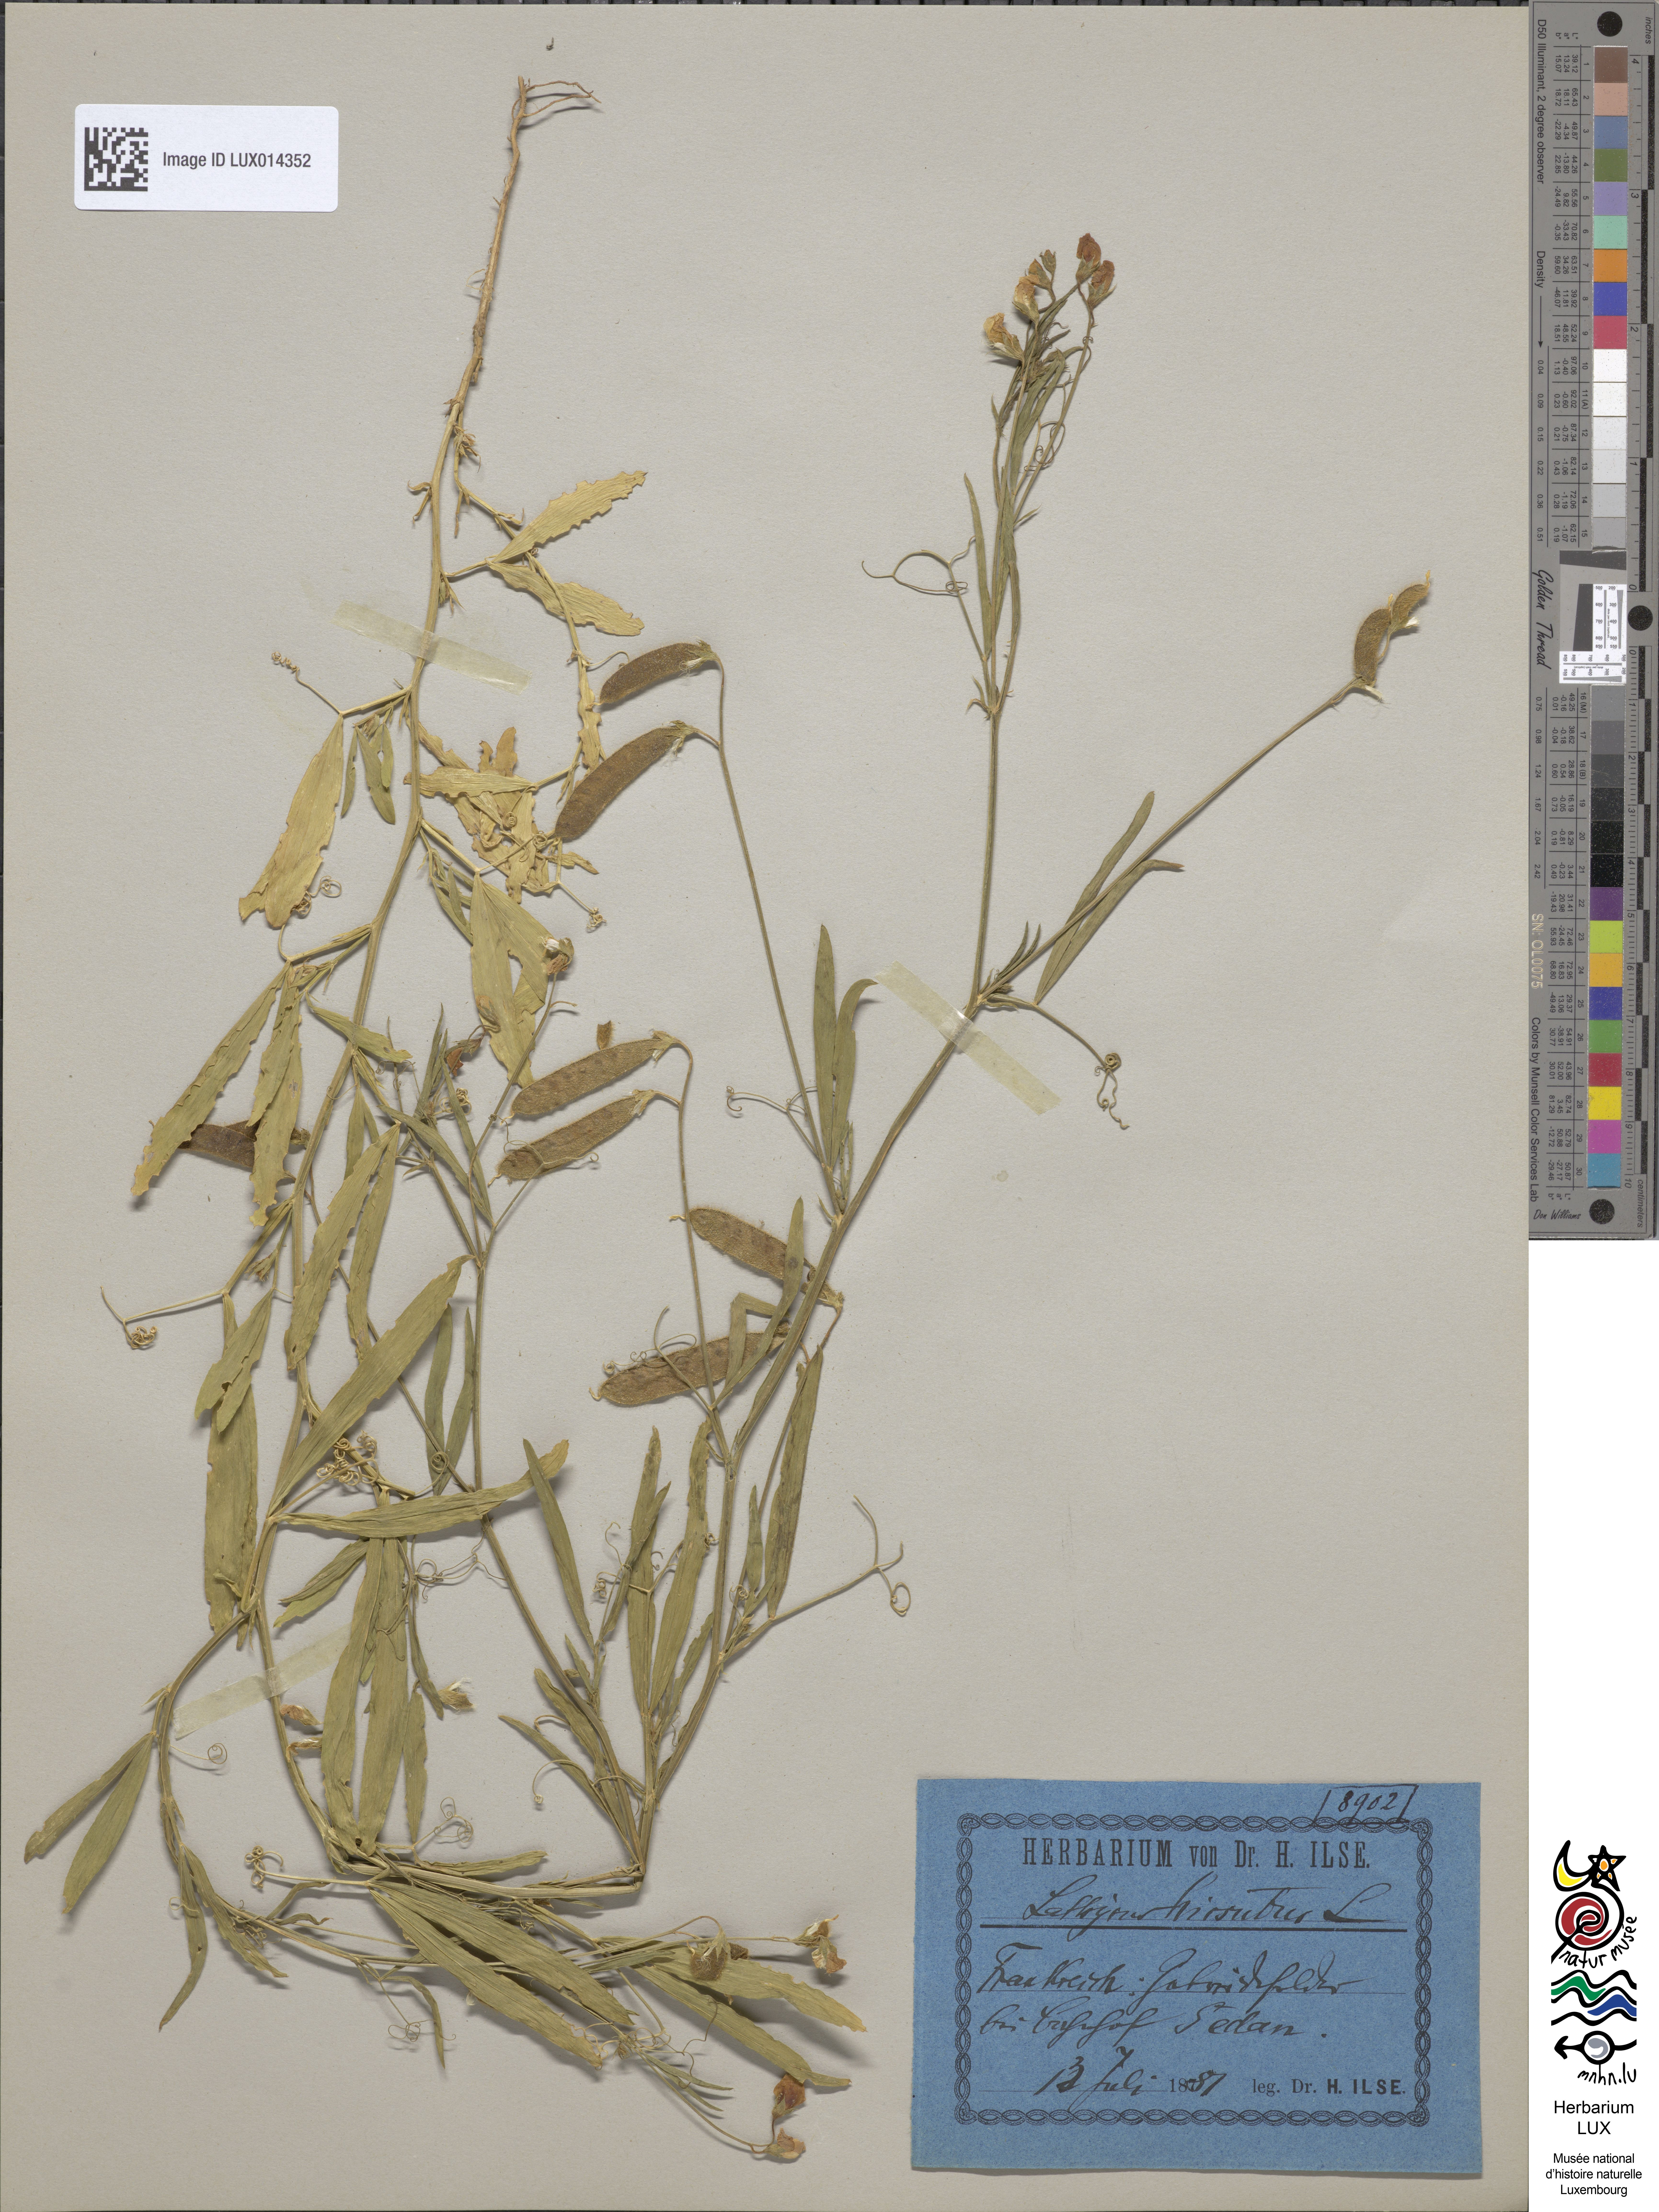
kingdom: Plantae
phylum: Tracheophyta
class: Magnoliopsida
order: Fabales
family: Fabaceae
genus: Lathyrus
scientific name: Lathyrus hirsutus
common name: Hairy vetchling
